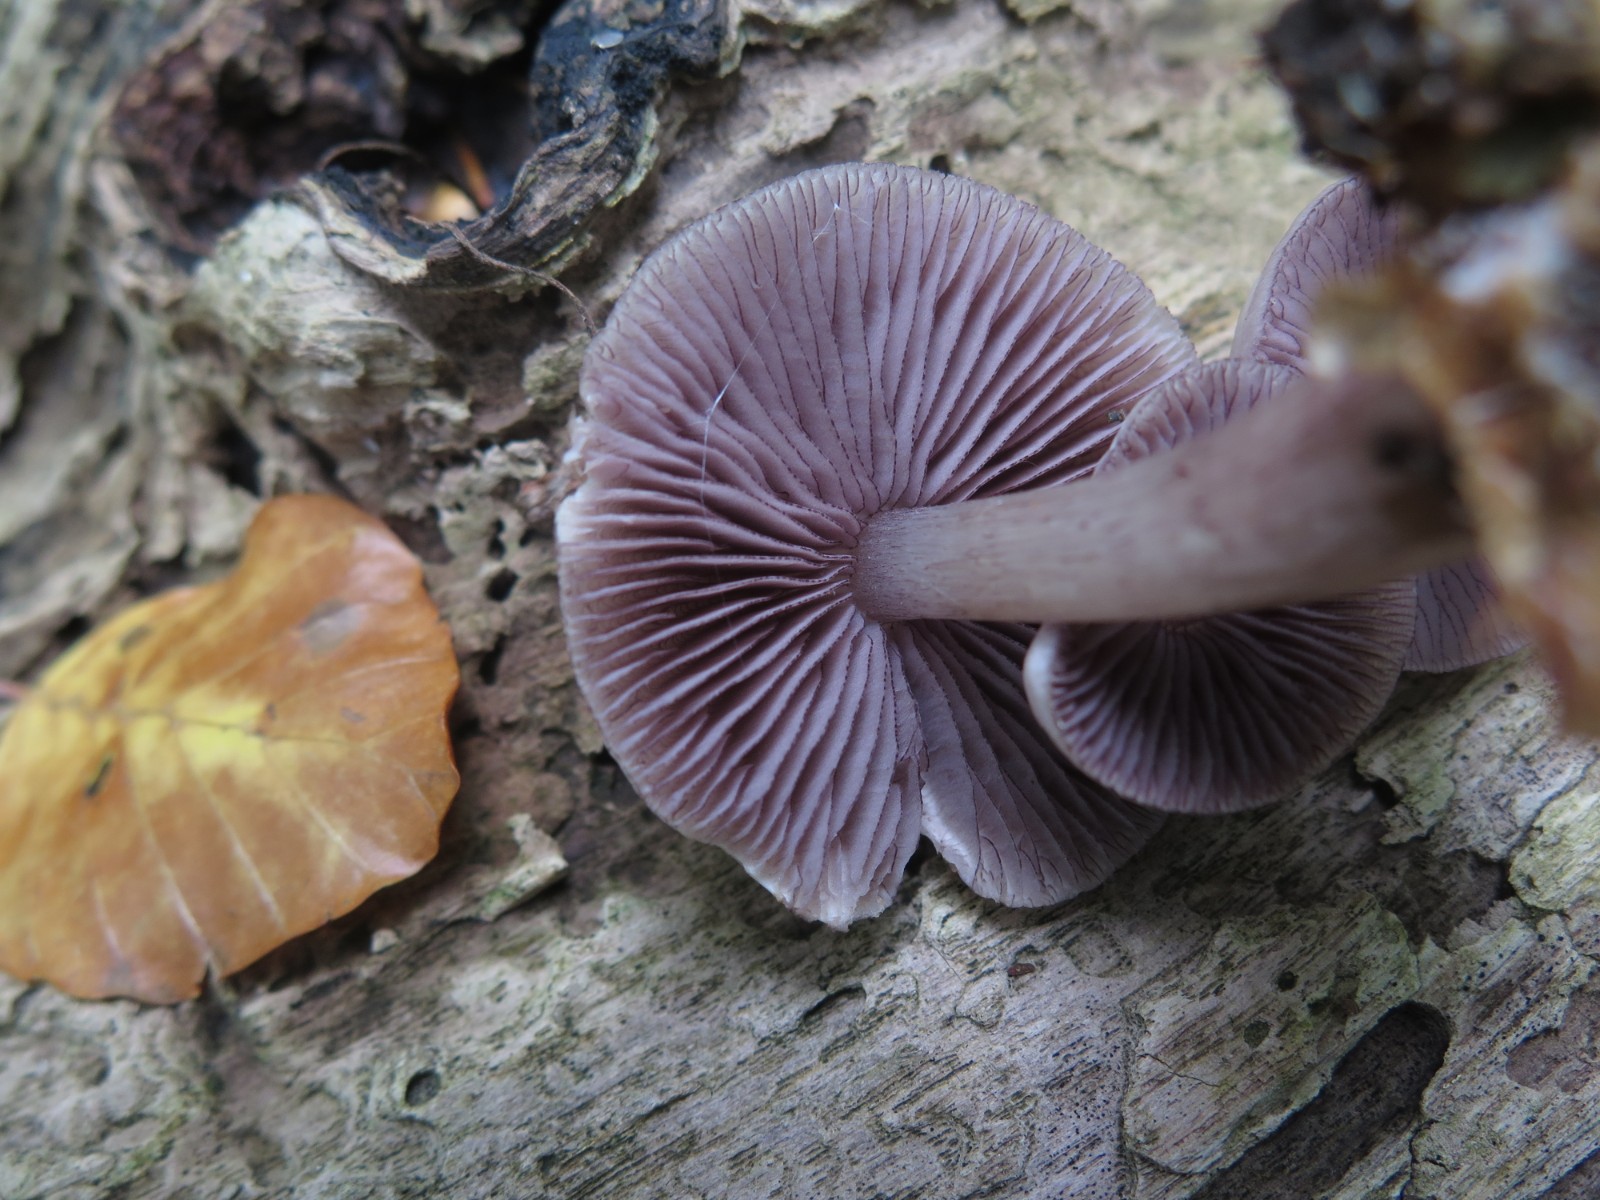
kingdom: Fungi
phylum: Basidiomycota
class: Agaricomycetes
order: Agaricales
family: Mycenaceae
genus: Mycena
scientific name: Mycena pelianthina
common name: mørkbladet huesvamp
